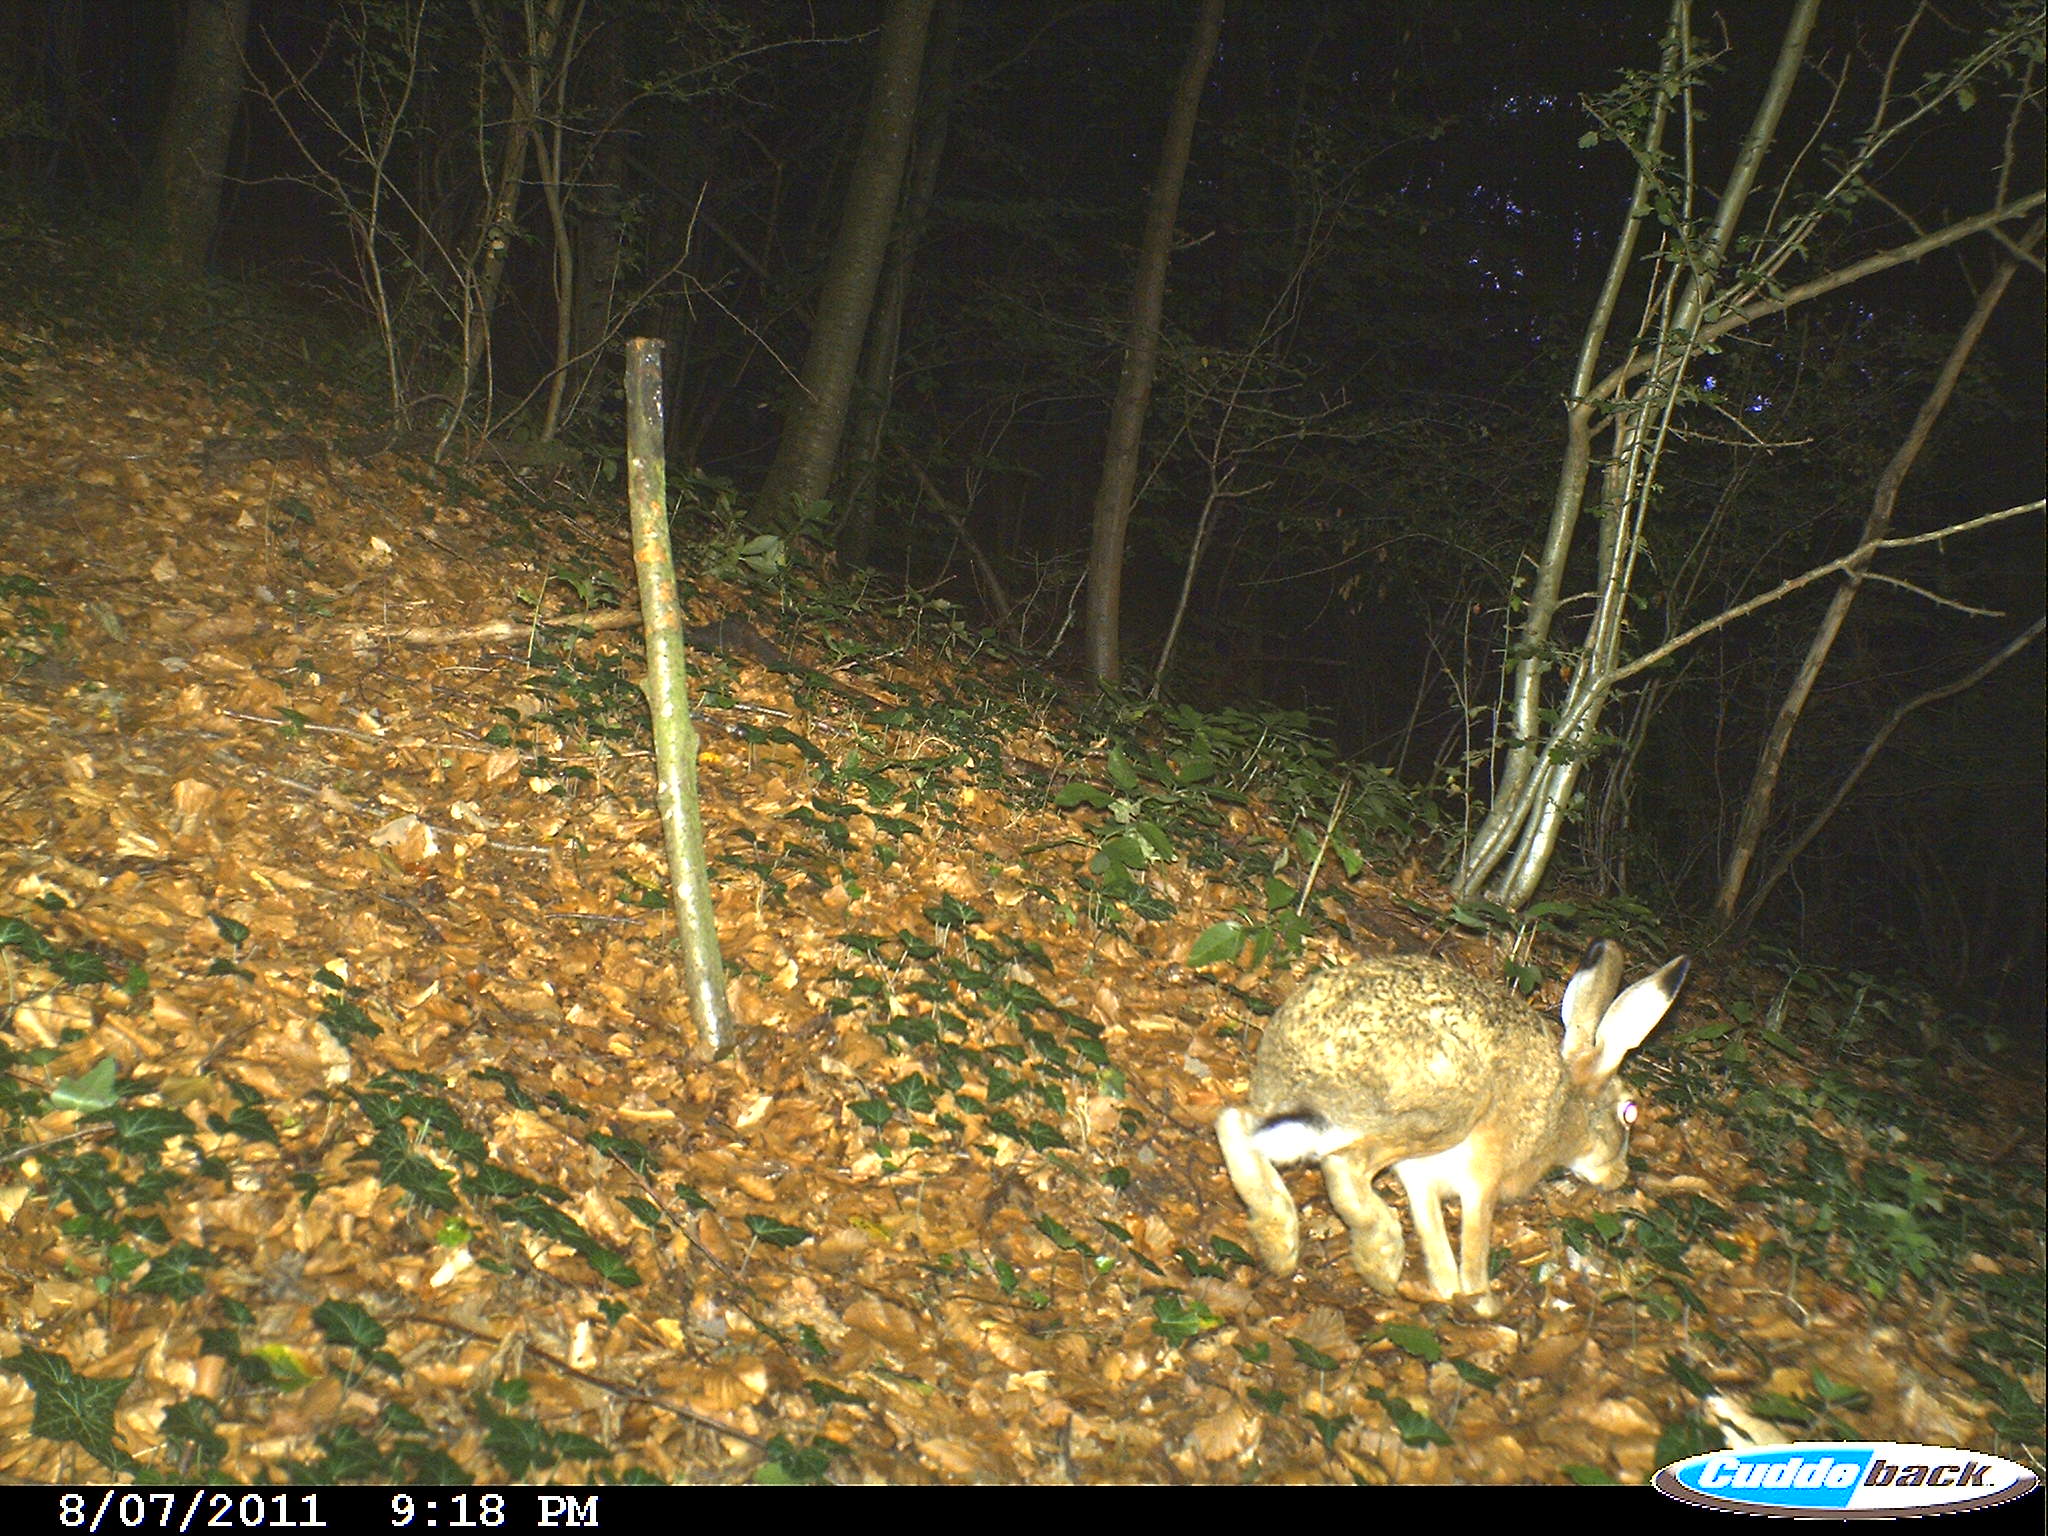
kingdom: Animalia
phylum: Chordata
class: Mammalia
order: Lagomorpha
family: Leporidae
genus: Lepus
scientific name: Lepus europaeus
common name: European hare
